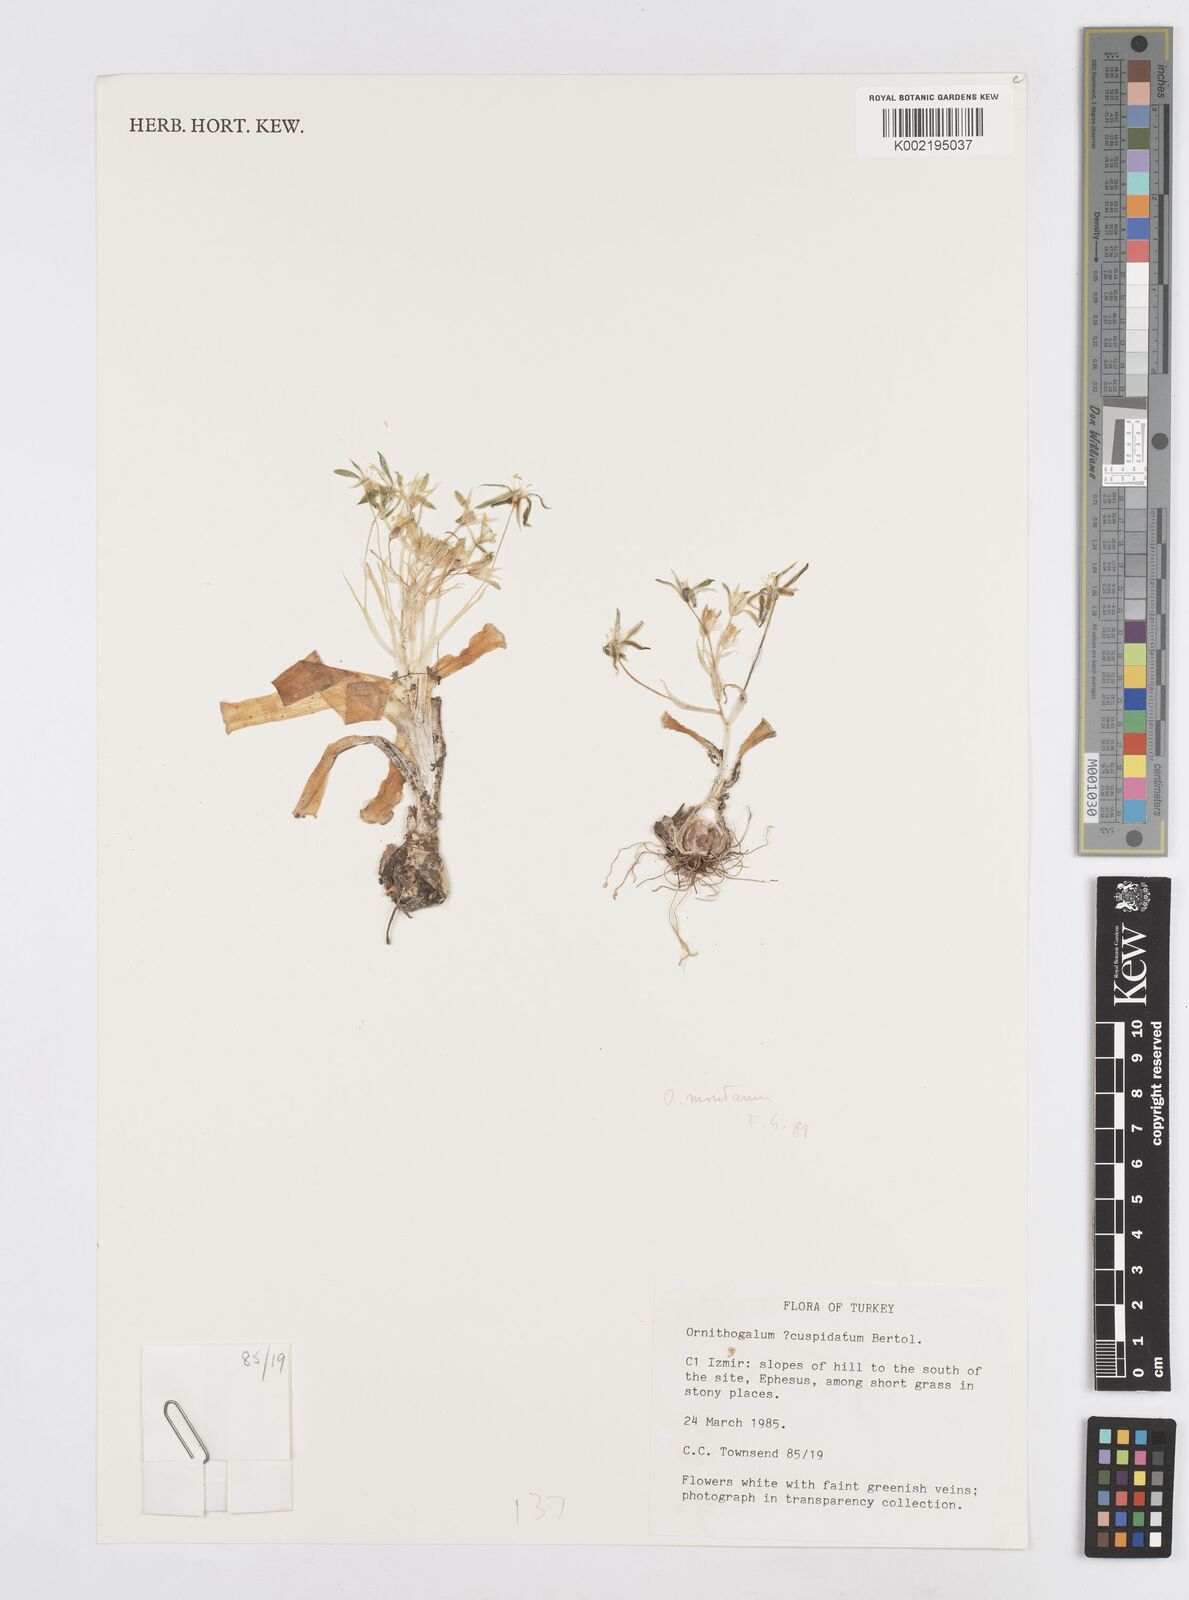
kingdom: Plantae
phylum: Tracheophyta
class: Liliopsida
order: Asparagales
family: Asparagaceae
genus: Ornithogalum
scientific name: Ornithogalum cuspidatum
